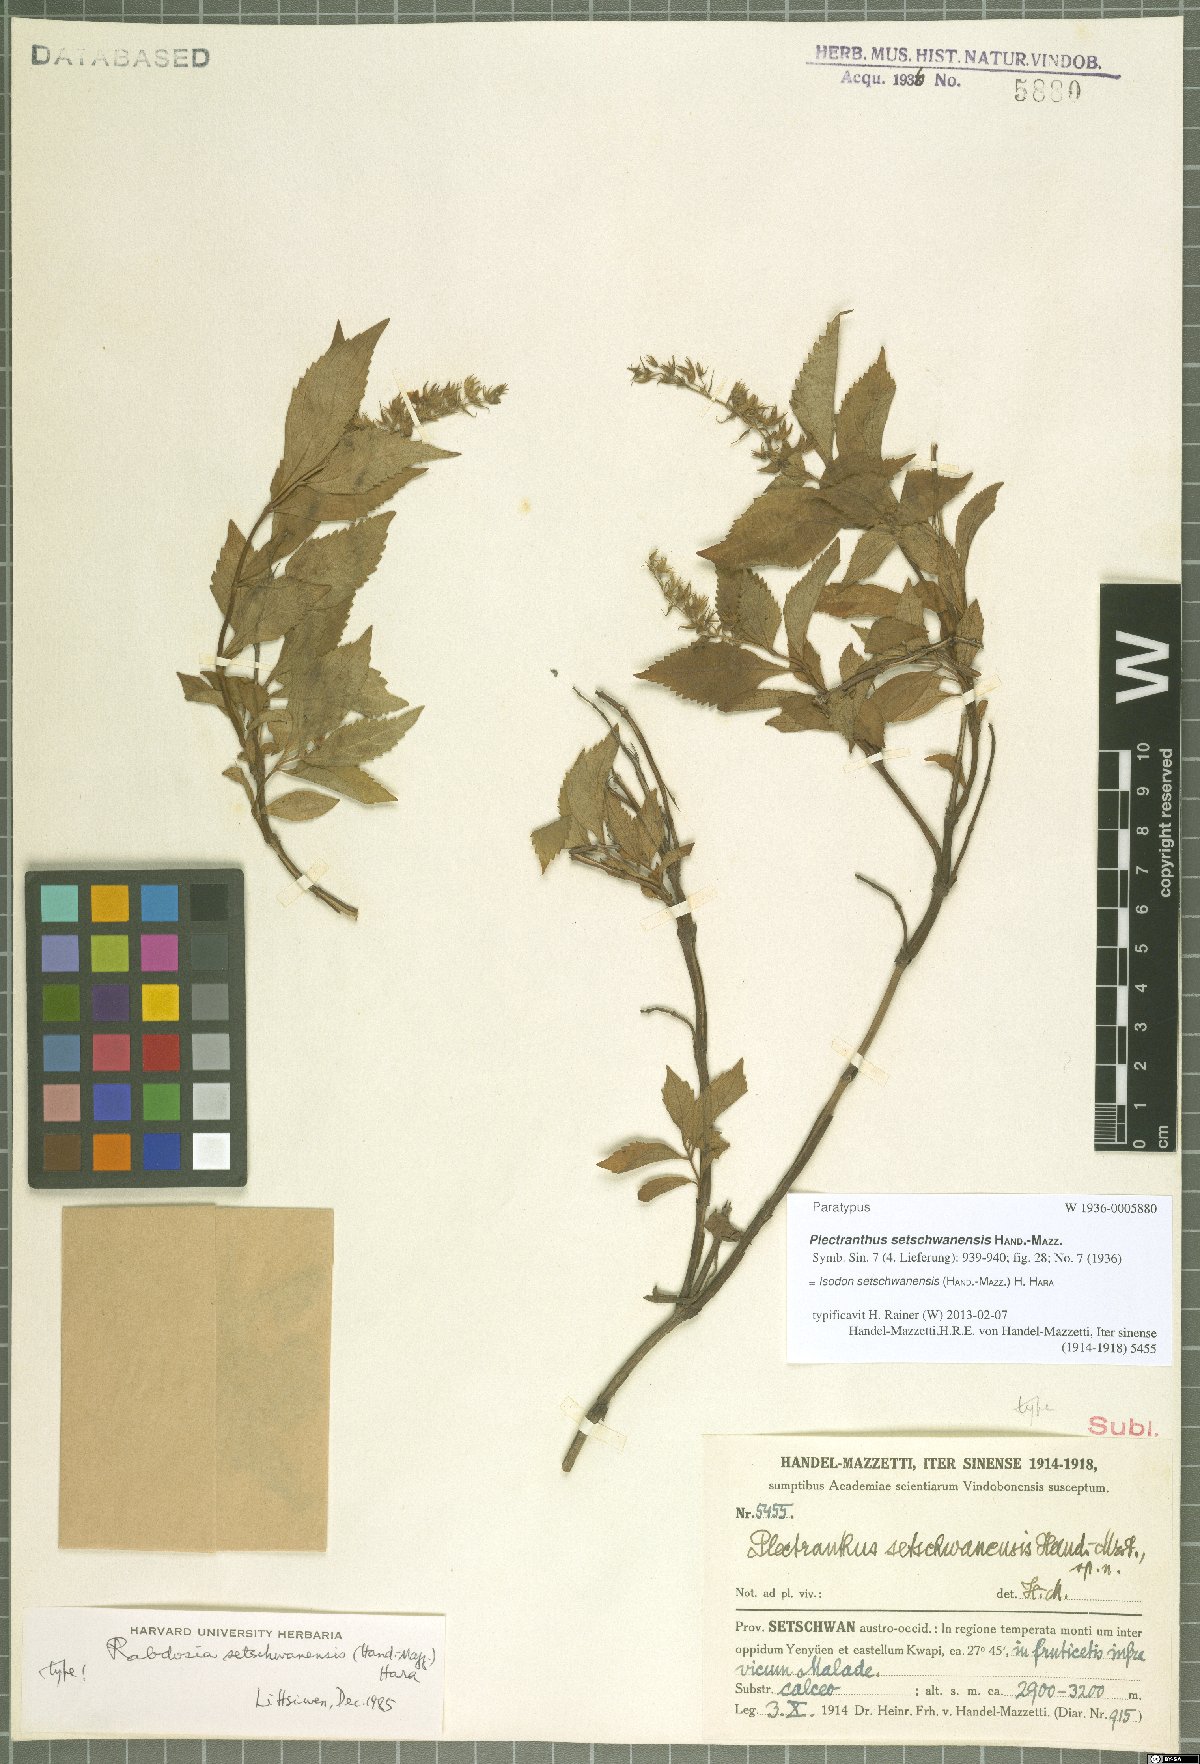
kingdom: Plantae
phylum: Tracheophyta
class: Magnoliopsida
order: Lamiales
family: Lamiaceae
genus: Isodon
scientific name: Isodon setschwanensis
